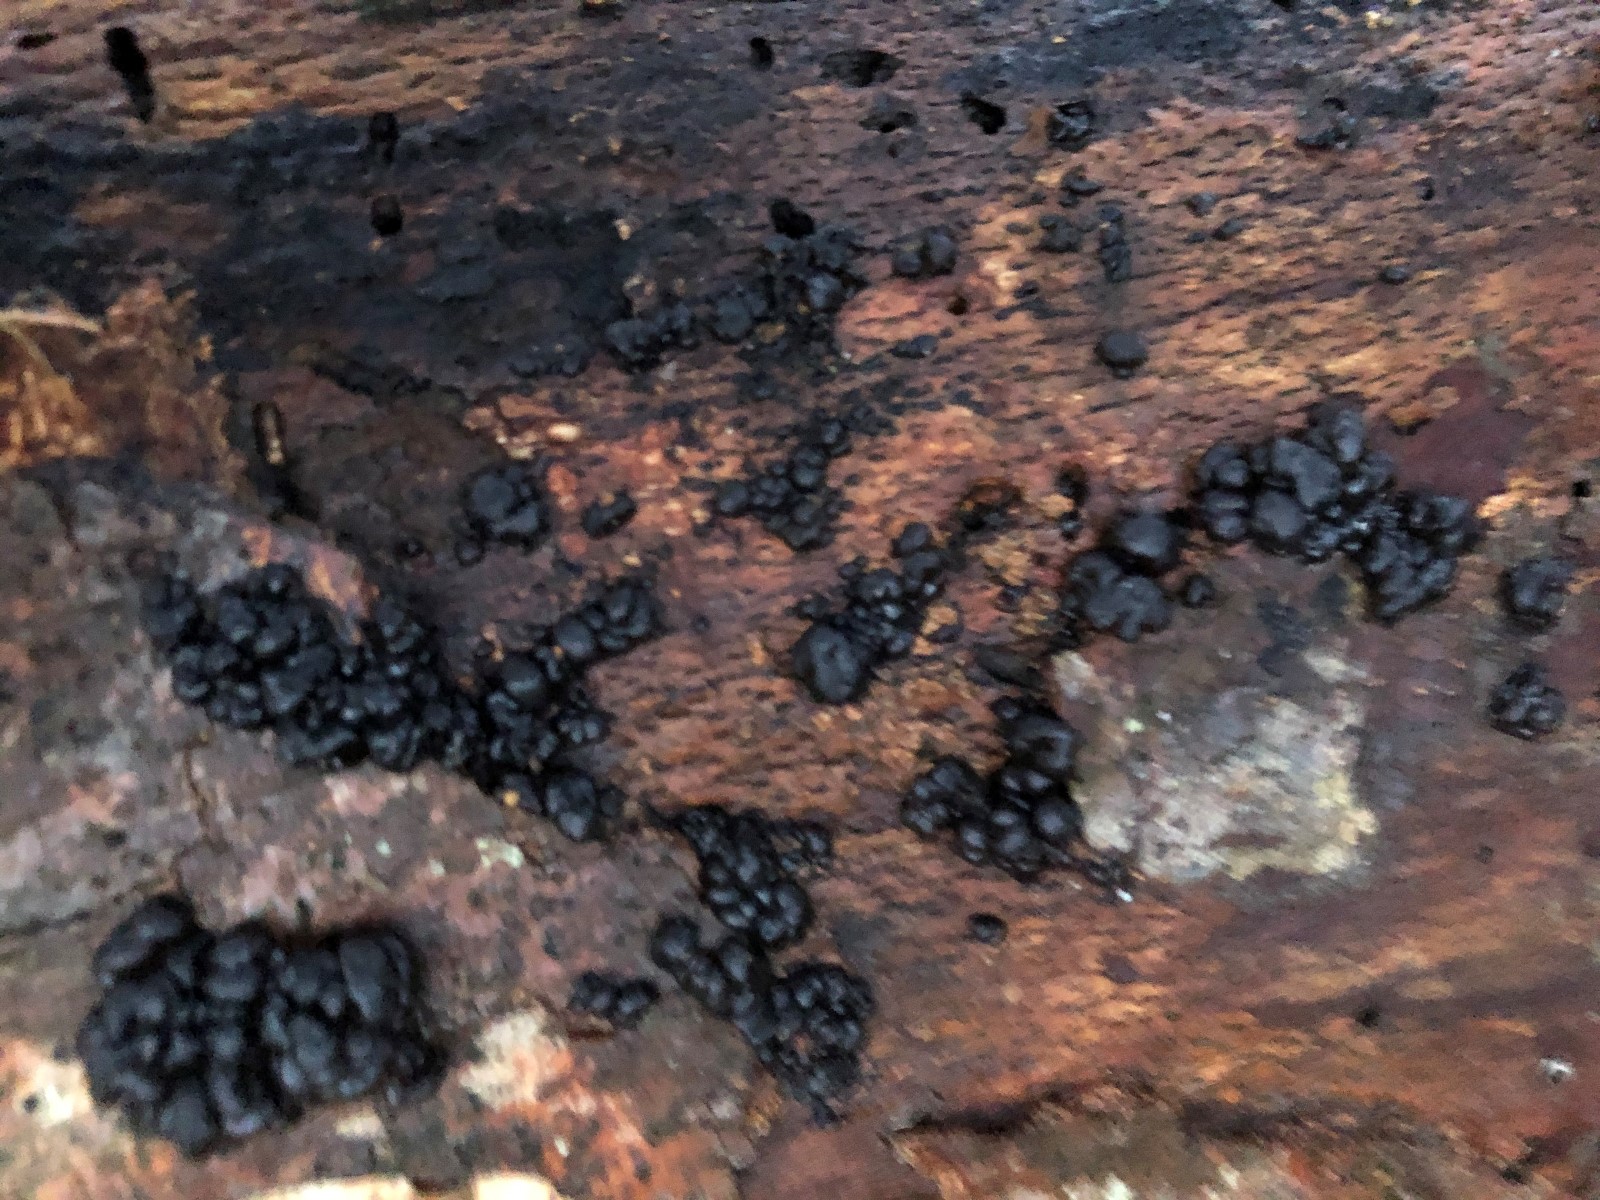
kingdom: Fungi
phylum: Basidiomycota
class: Agaricomycetes
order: Auriculariales
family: Auriculariaceae
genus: Exidia
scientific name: Exidia nigricans
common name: almindelig bævretop
